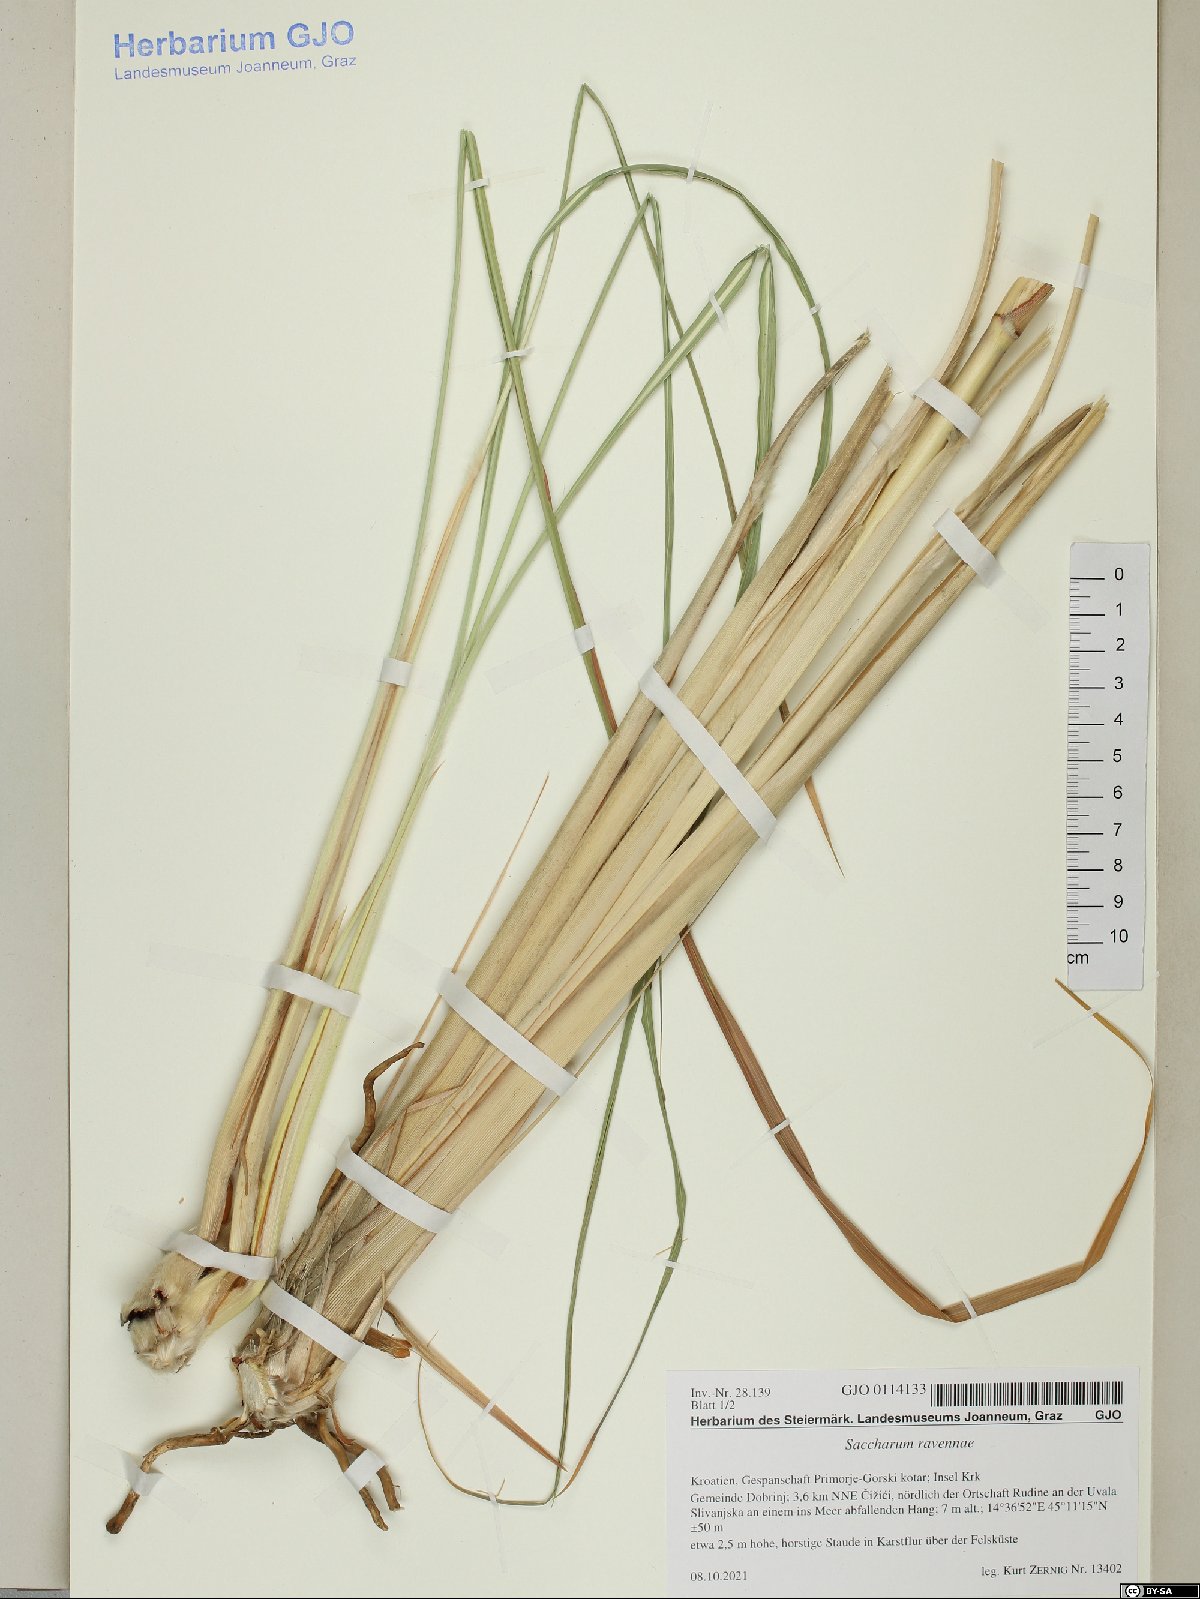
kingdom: Plantae
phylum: Tracheophyta
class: Liliopsida
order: Poales
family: Poaceae
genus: Tripidium
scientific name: Tripidium ravennae
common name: Ravenna grass
